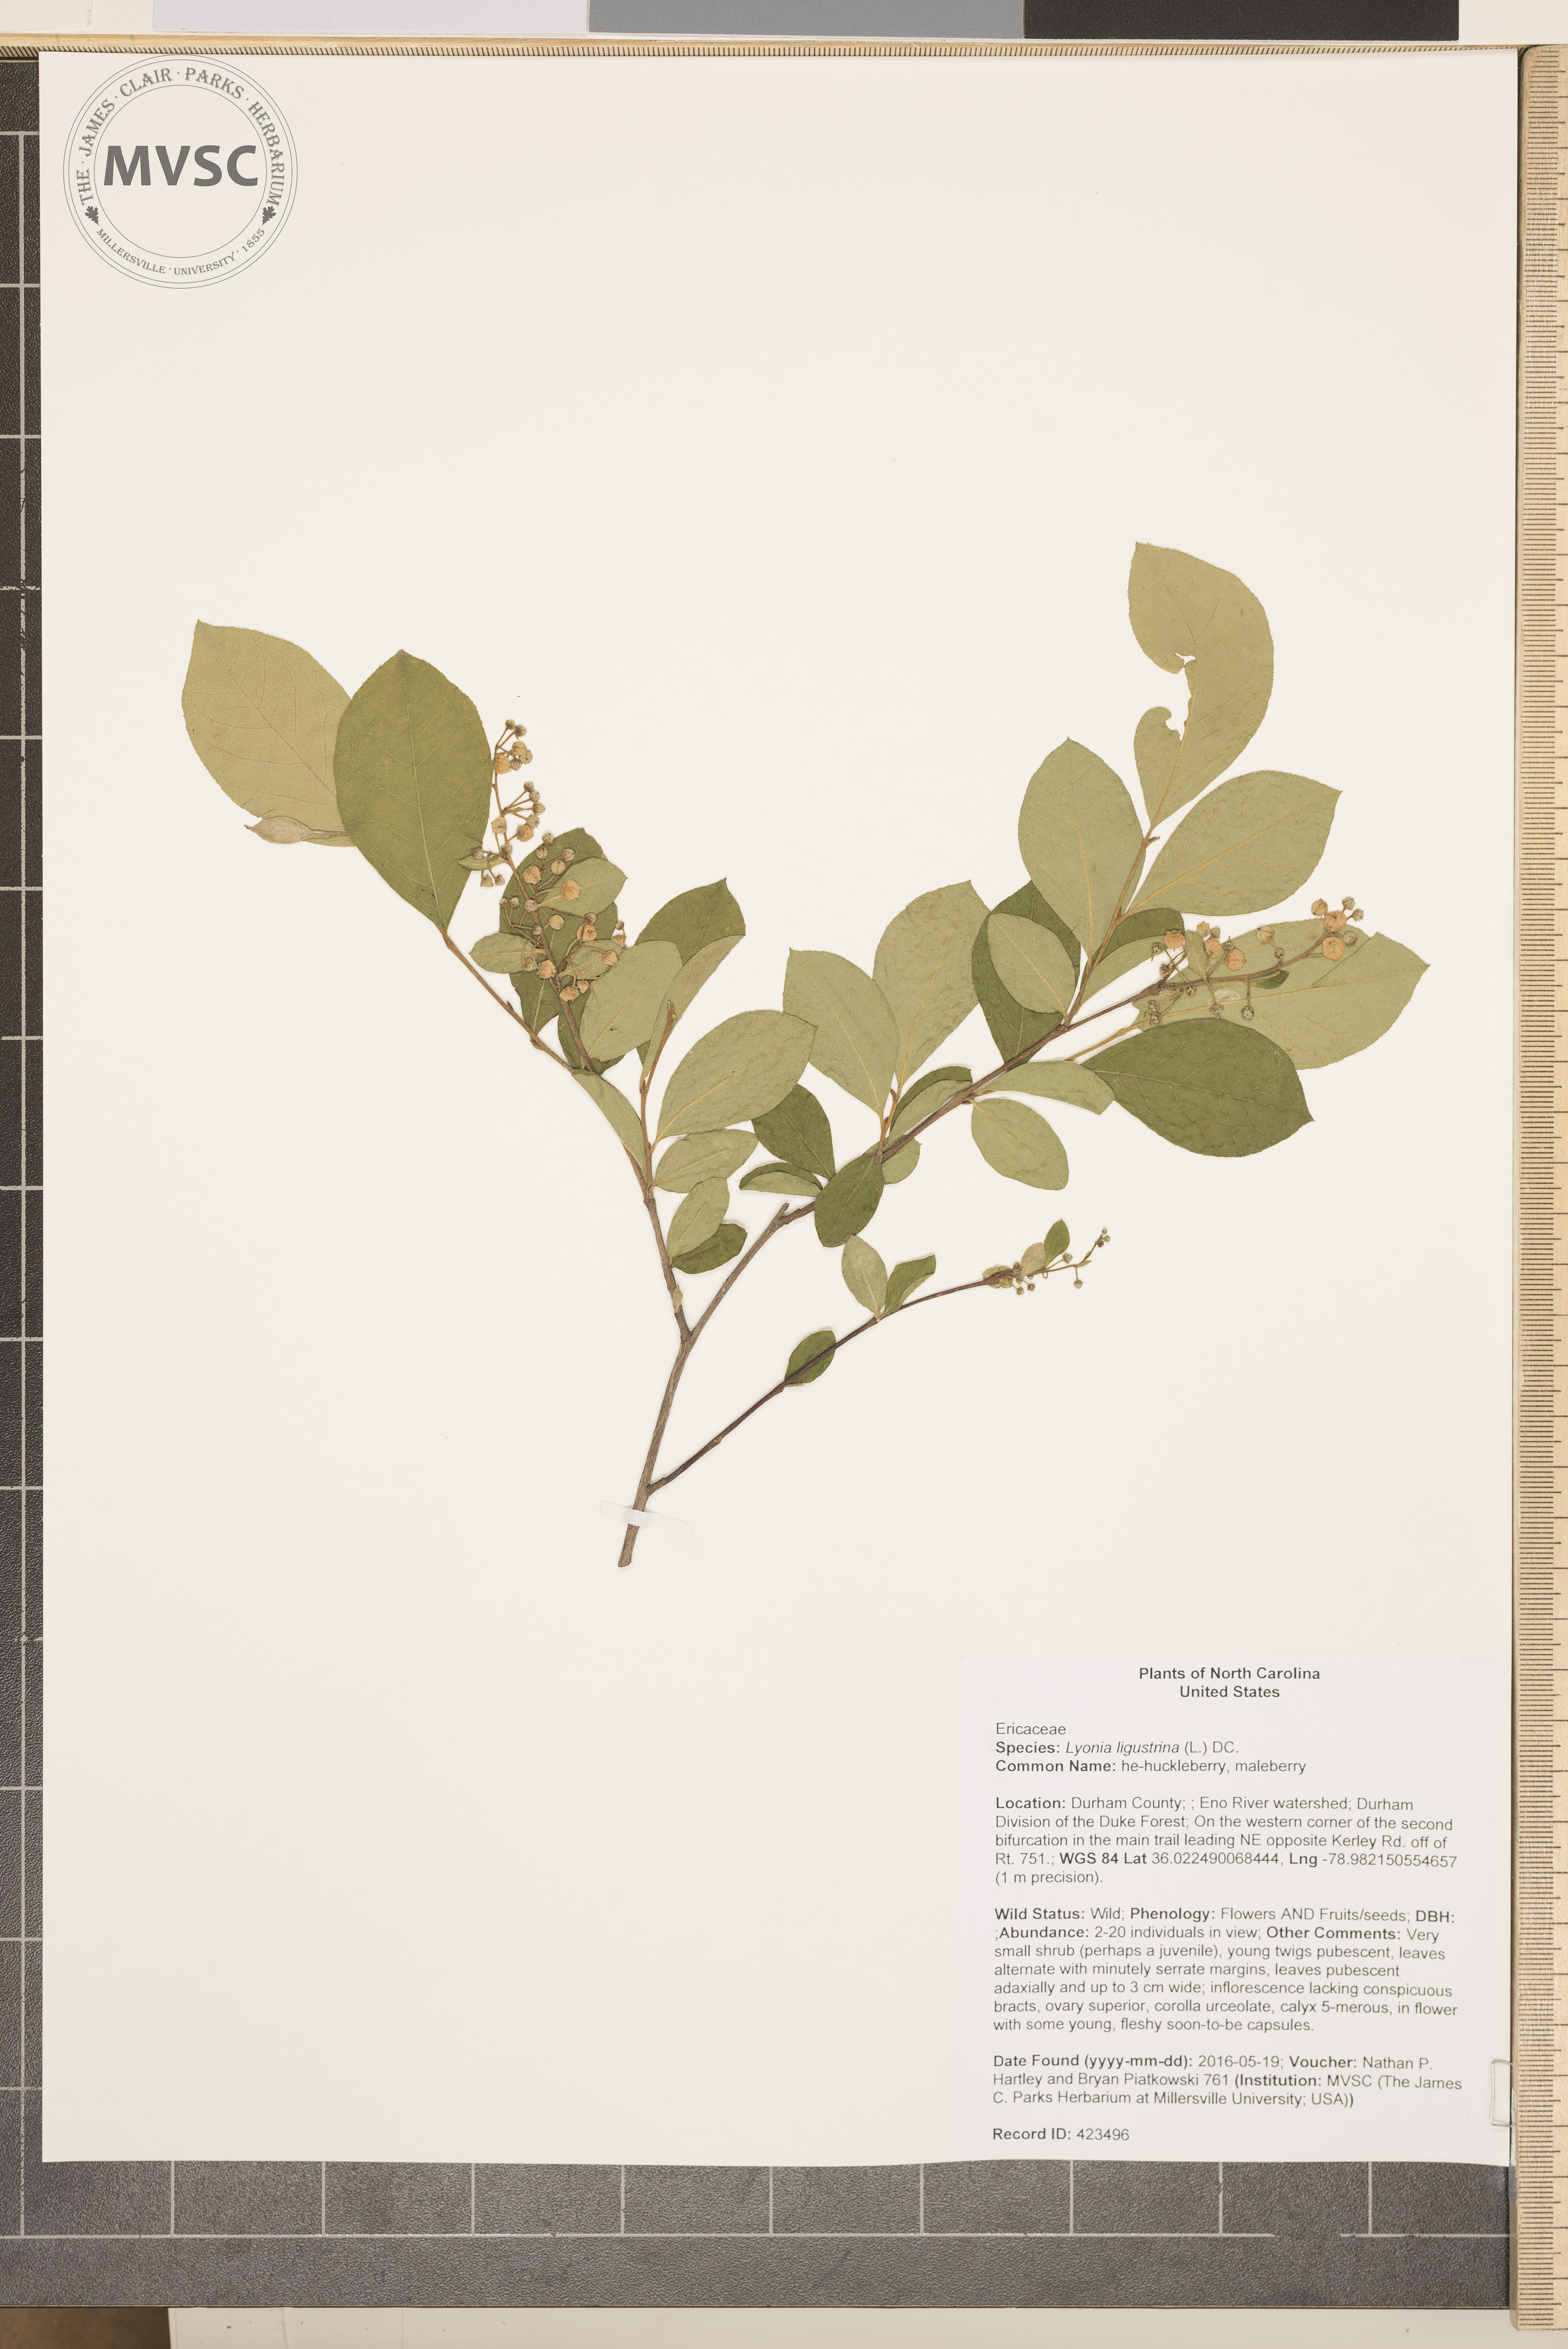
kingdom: Plantae
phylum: Tracheophyta
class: Magnoliopsida
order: Ericales
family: Ericaceae
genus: Lyonia
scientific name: Lyonia ligustrina
